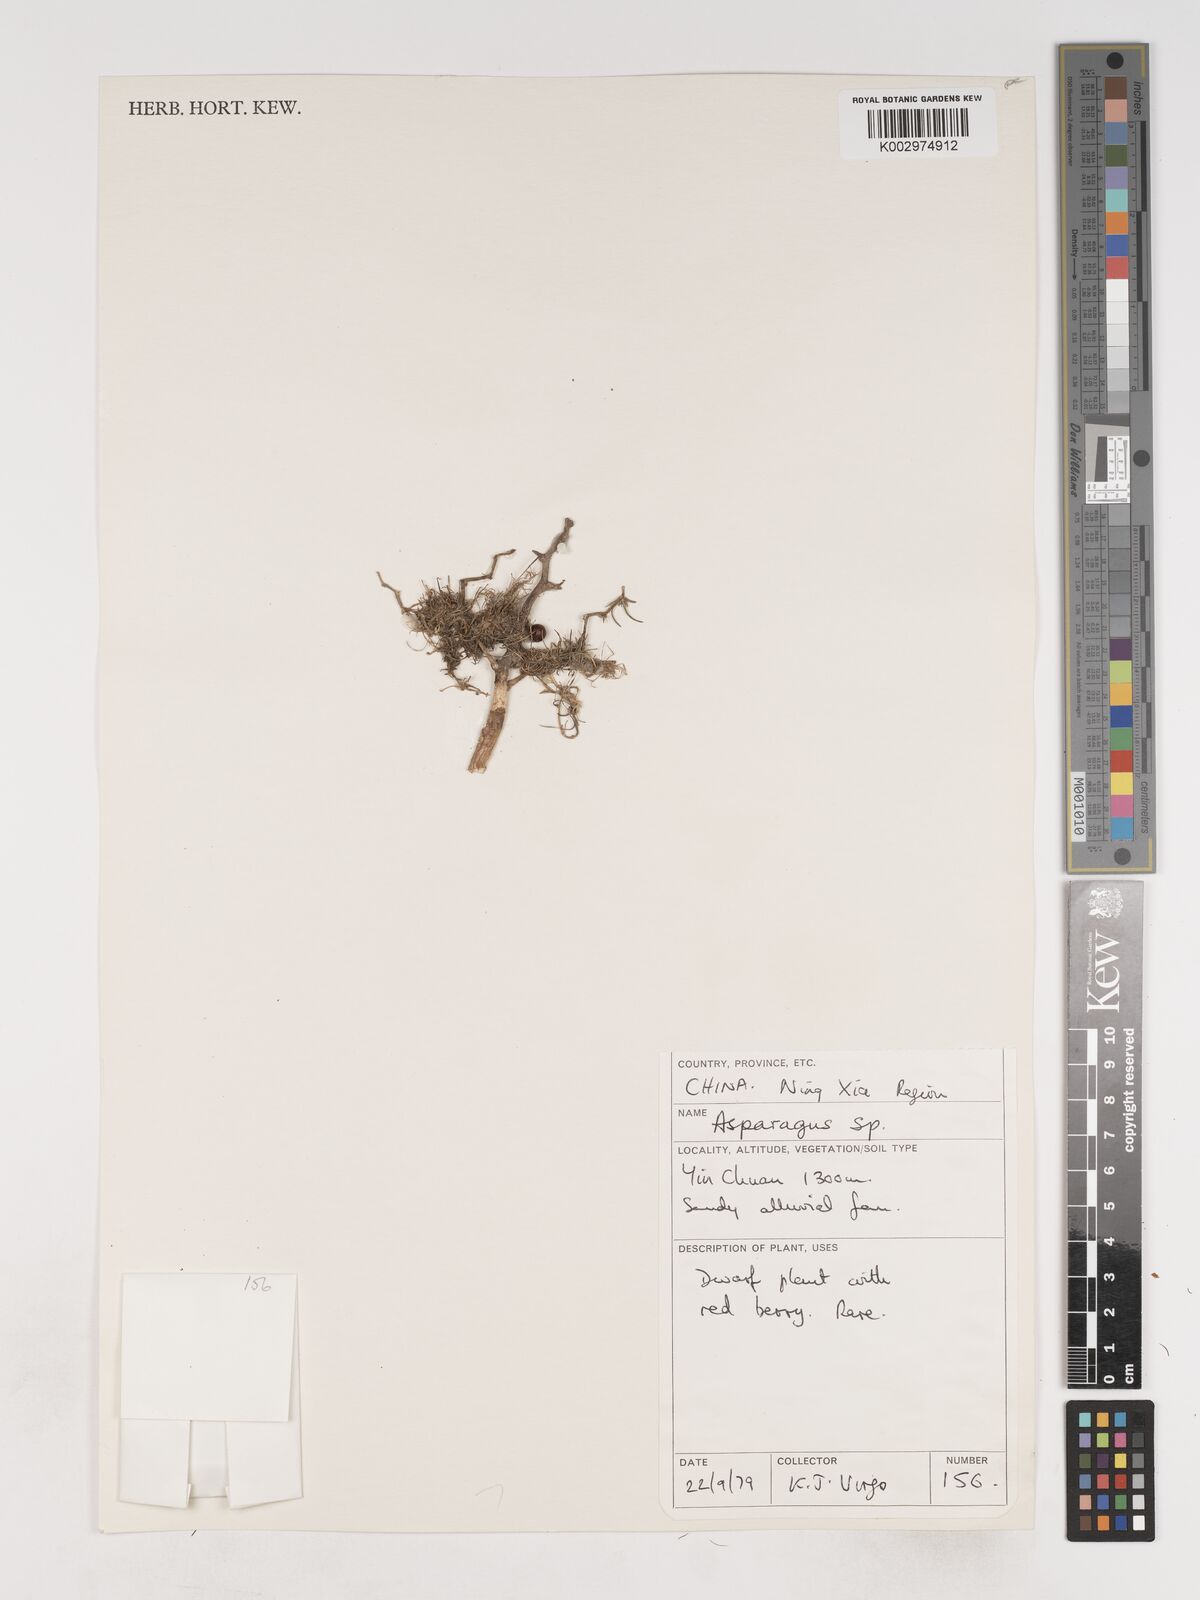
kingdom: Plantae
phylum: Tracheophyta
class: Liliopsida
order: Asparagales
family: Asparagaceae
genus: Asparagus
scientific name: Asparagus
